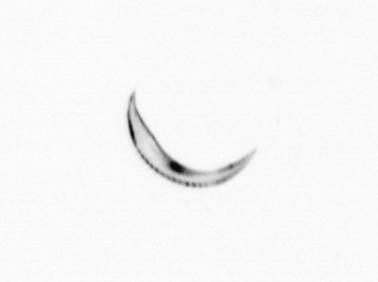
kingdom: Chromista
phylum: Ochrophyta
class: Bacillariophyceae
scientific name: Bacillariophyceae
